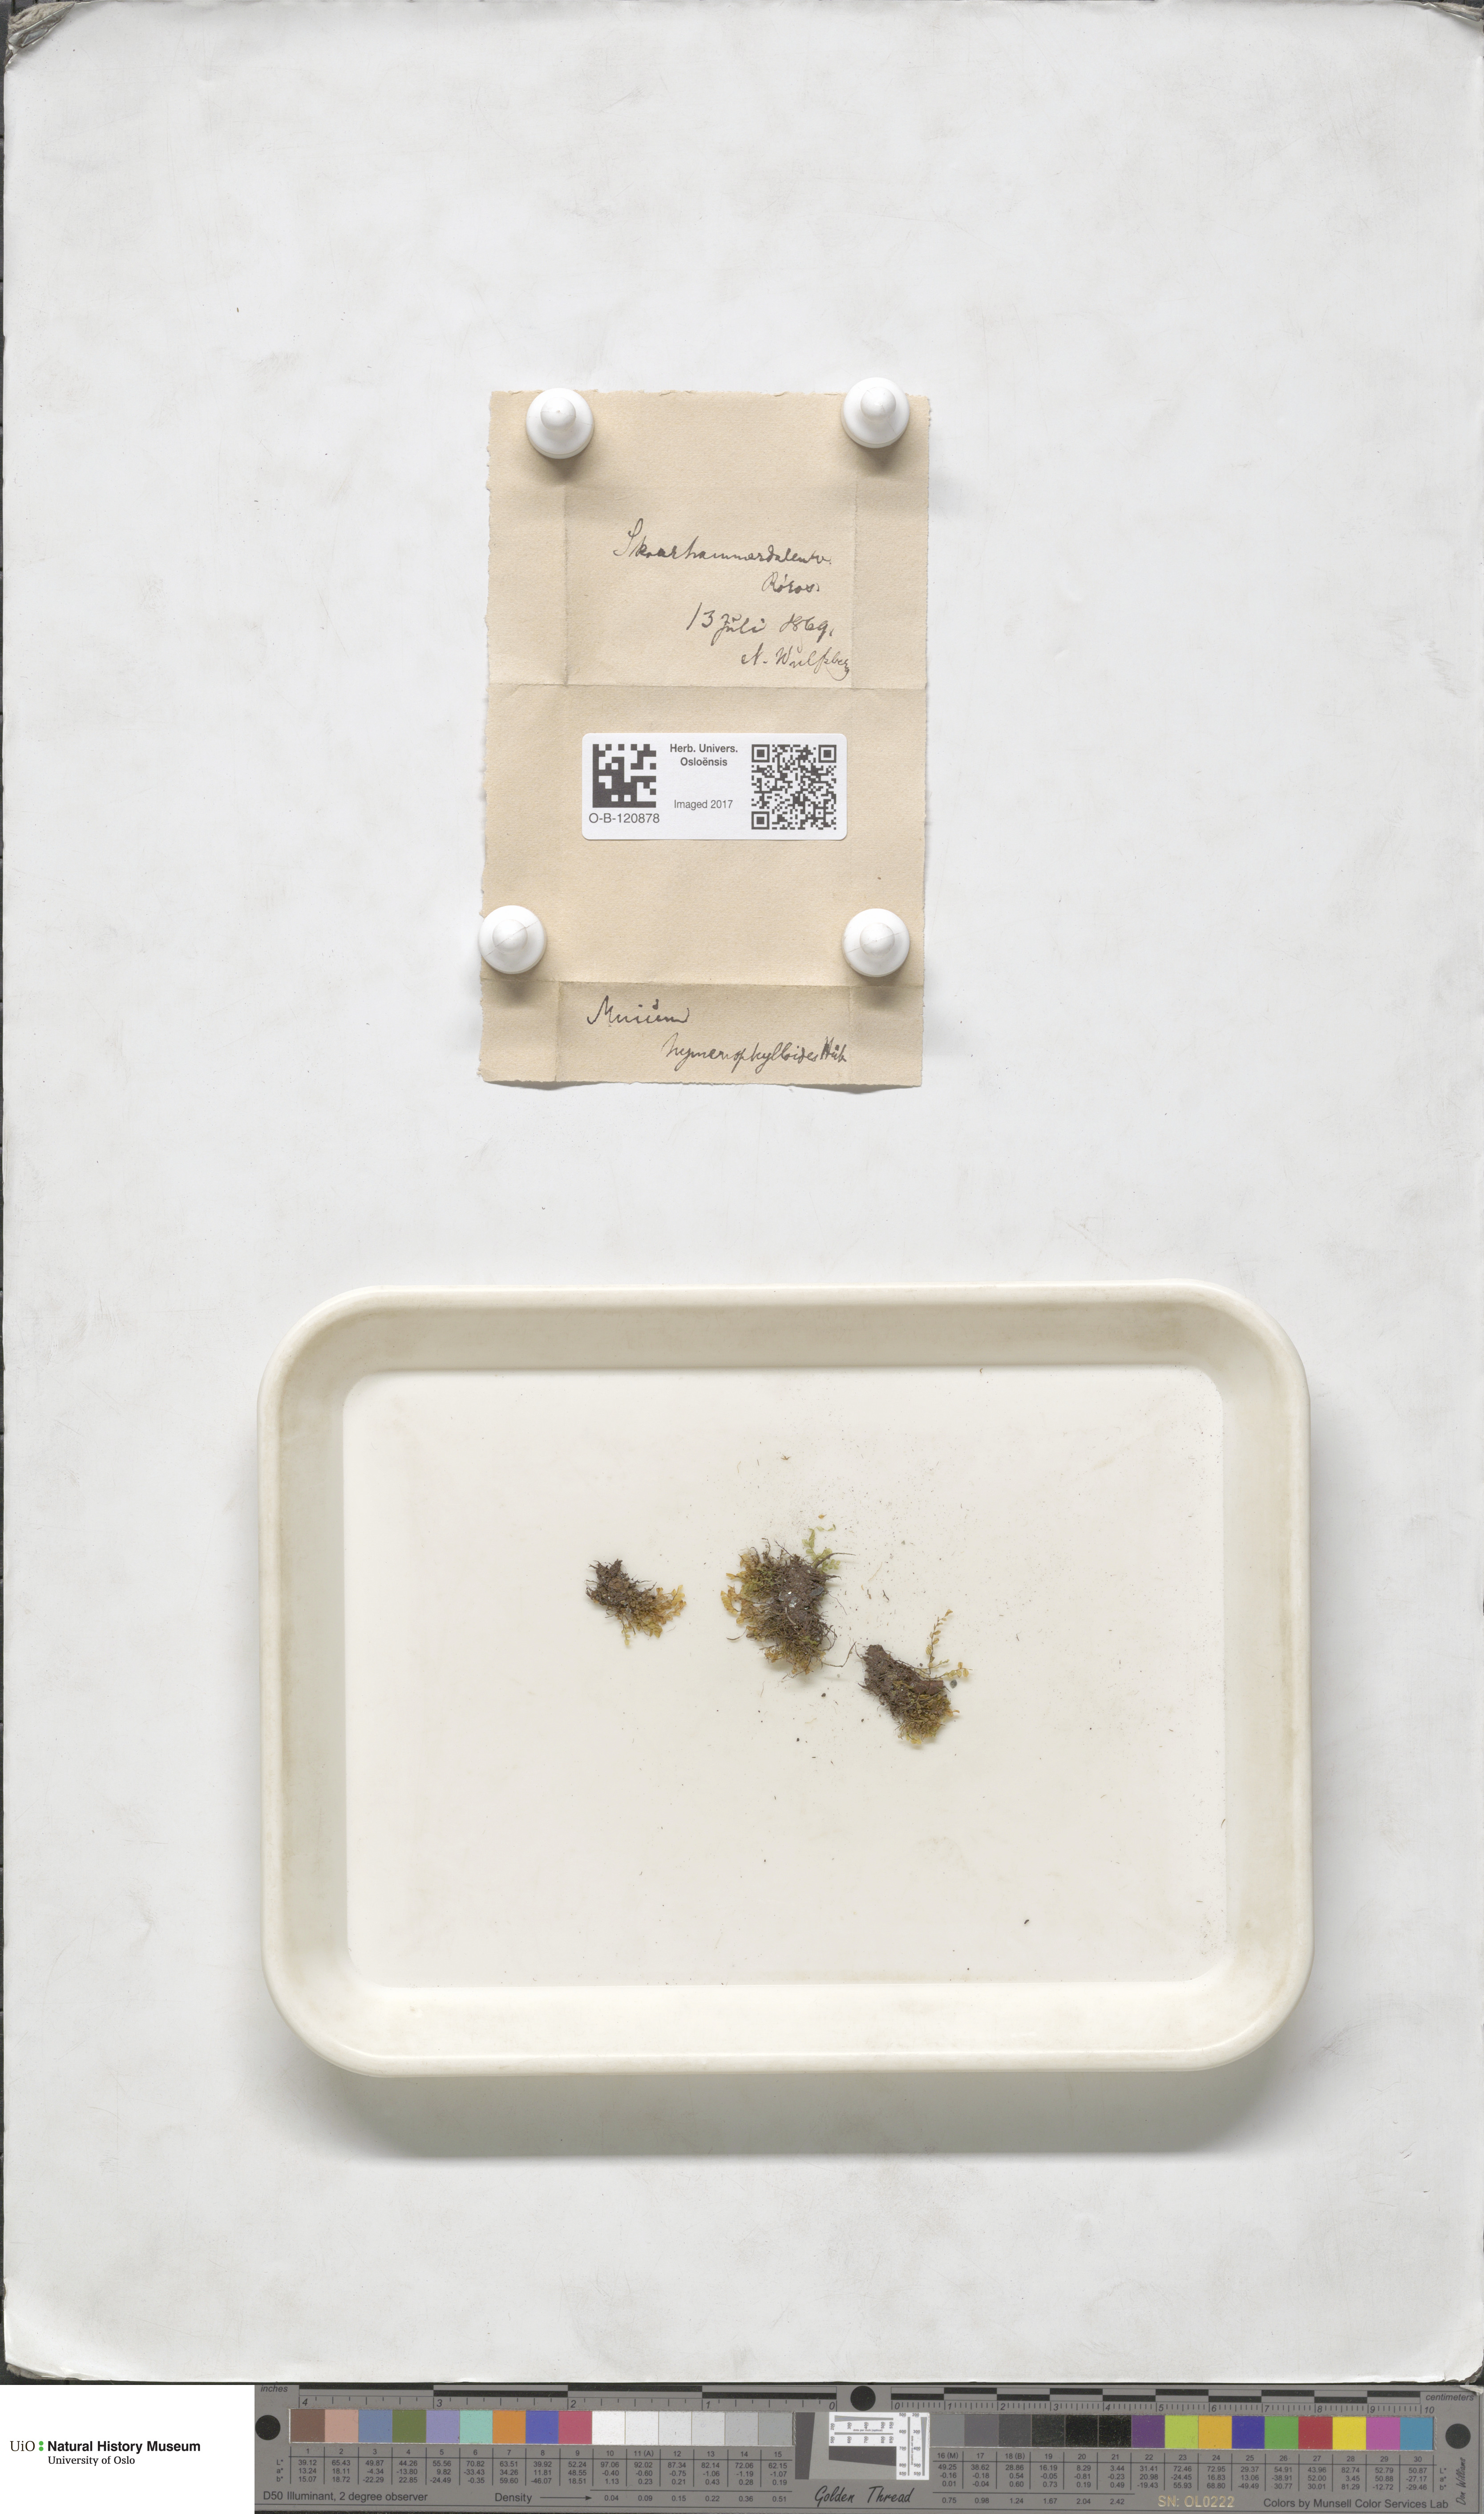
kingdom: Plantae
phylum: Bryophyta
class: Bryopsida
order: Bryales
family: Mniaceae
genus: Cyrtomnium
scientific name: Cyrtomnium hymenophylloides
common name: Short-pointed lantern moss
